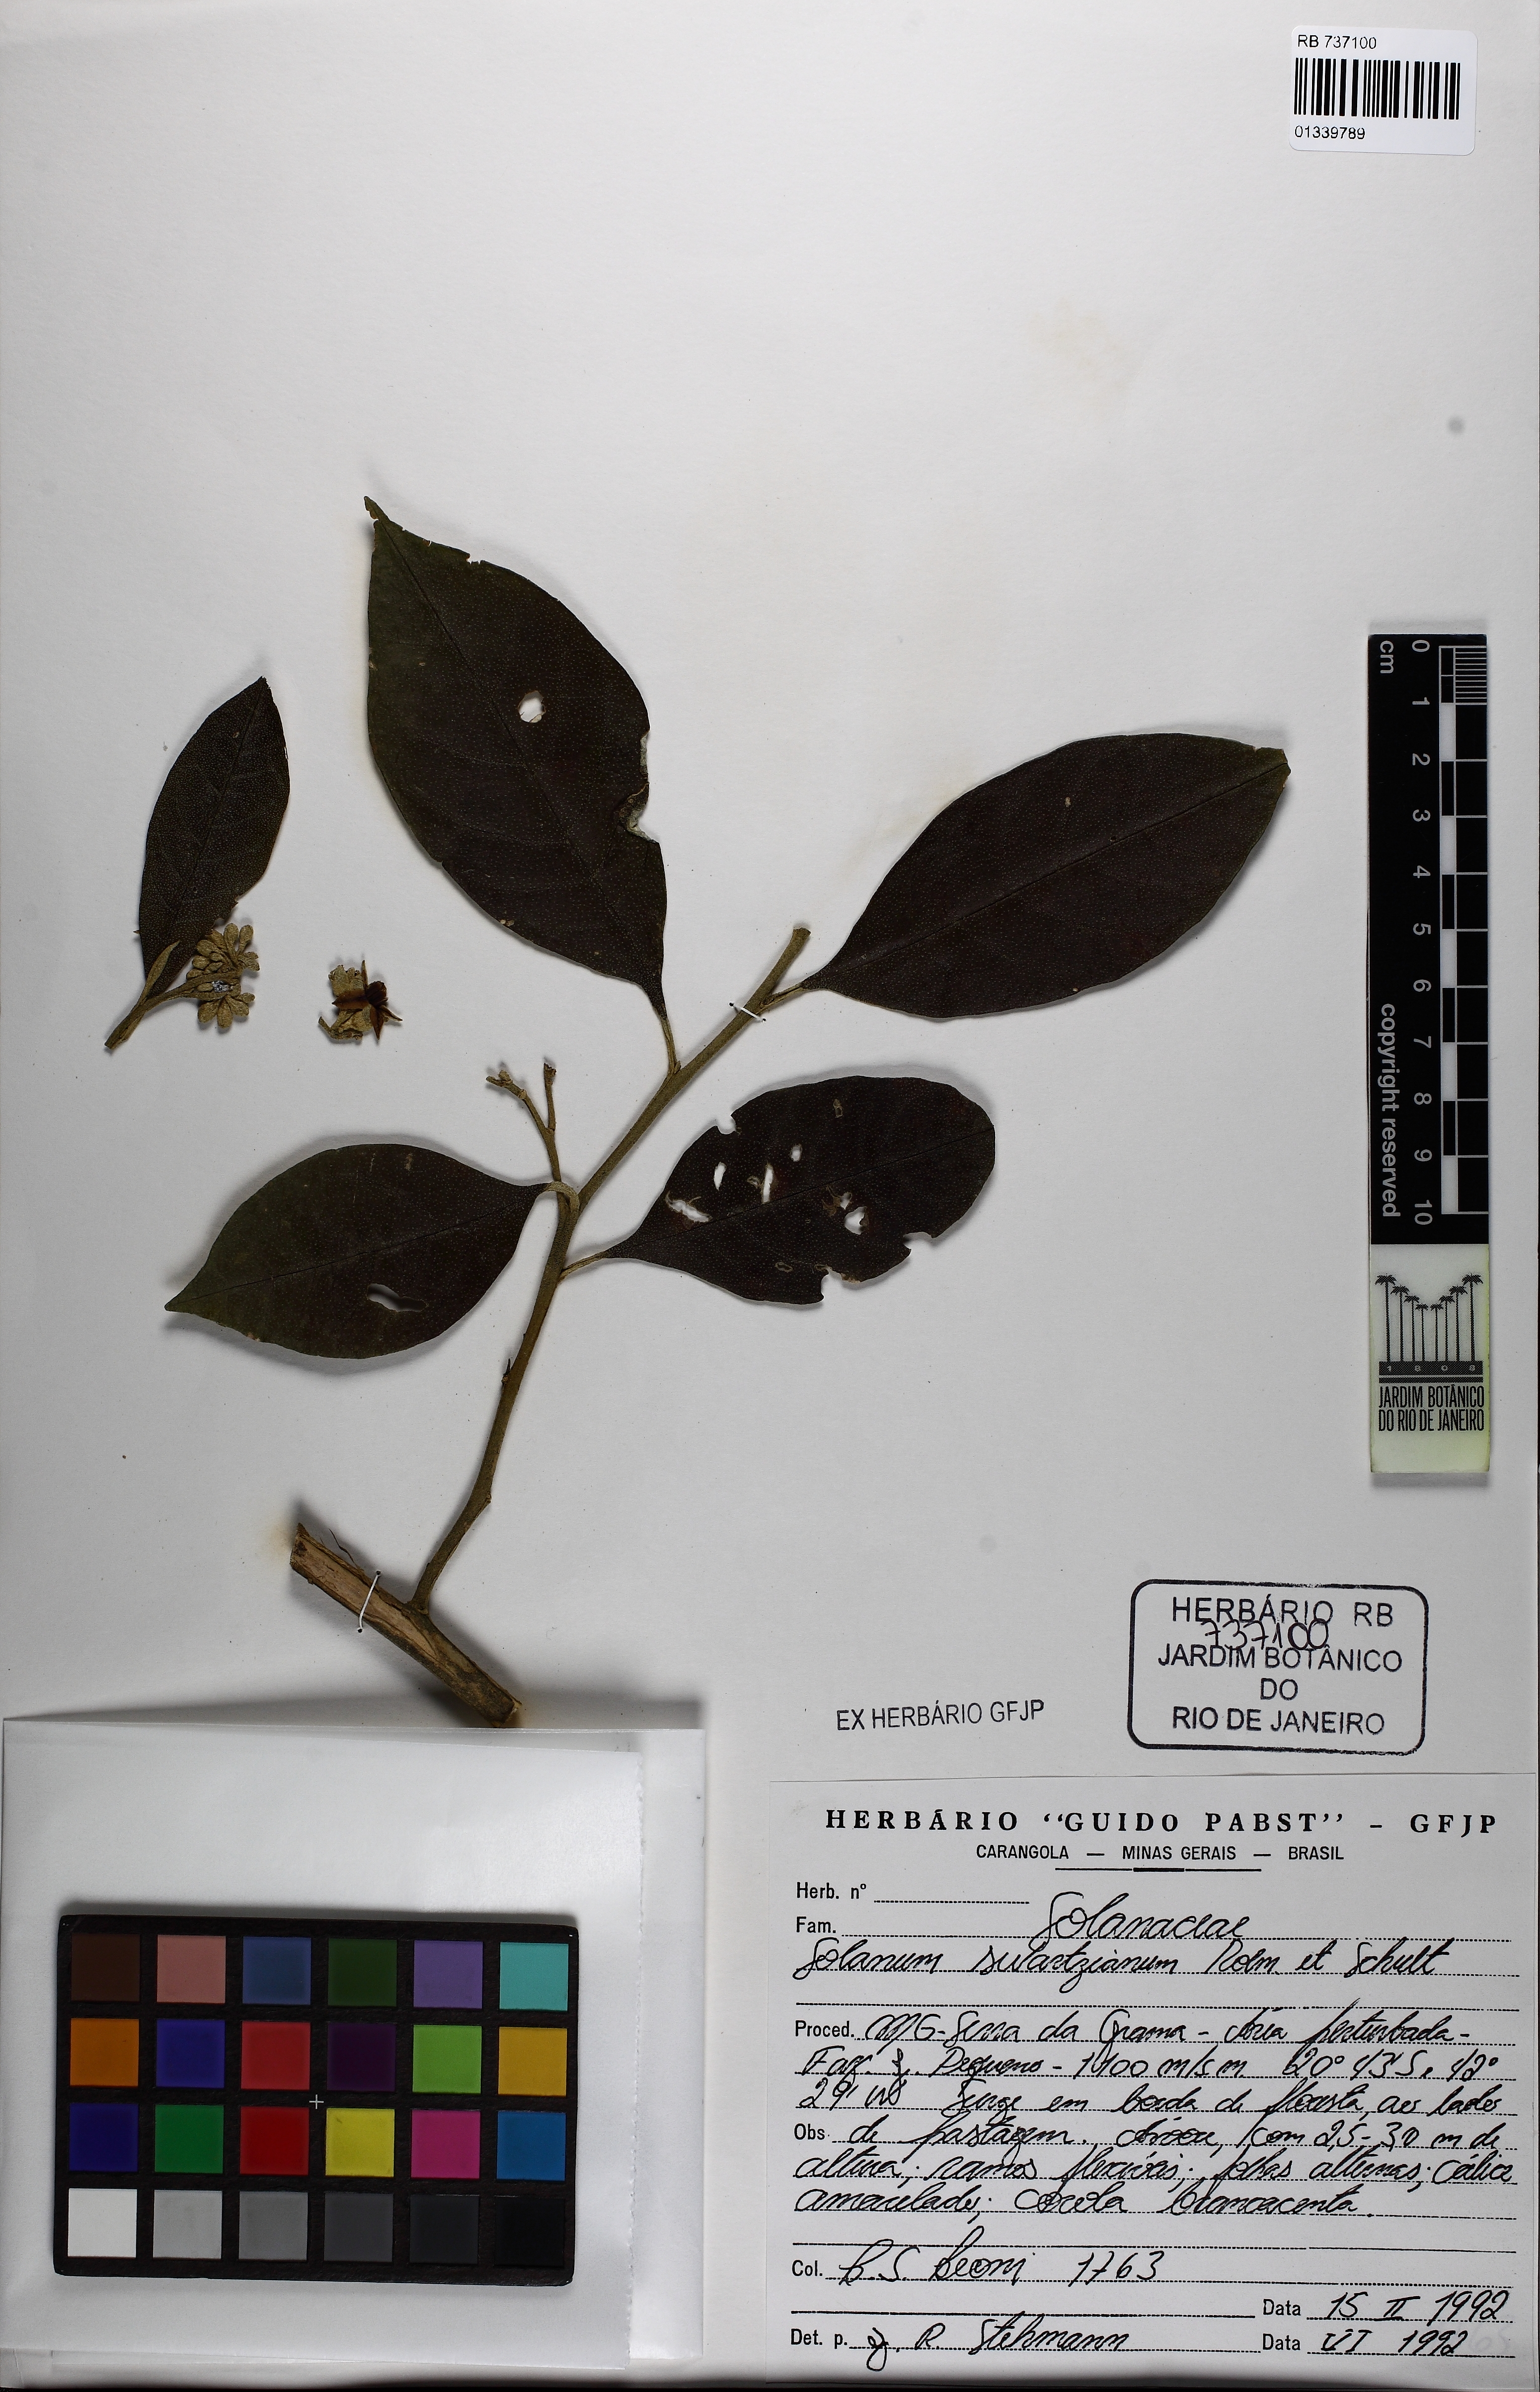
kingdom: Plantae
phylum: Tracheophyta
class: Magnoliopsida
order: Solanales
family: Solanaceae
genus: Solanum
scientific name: Solanum swartzianum
